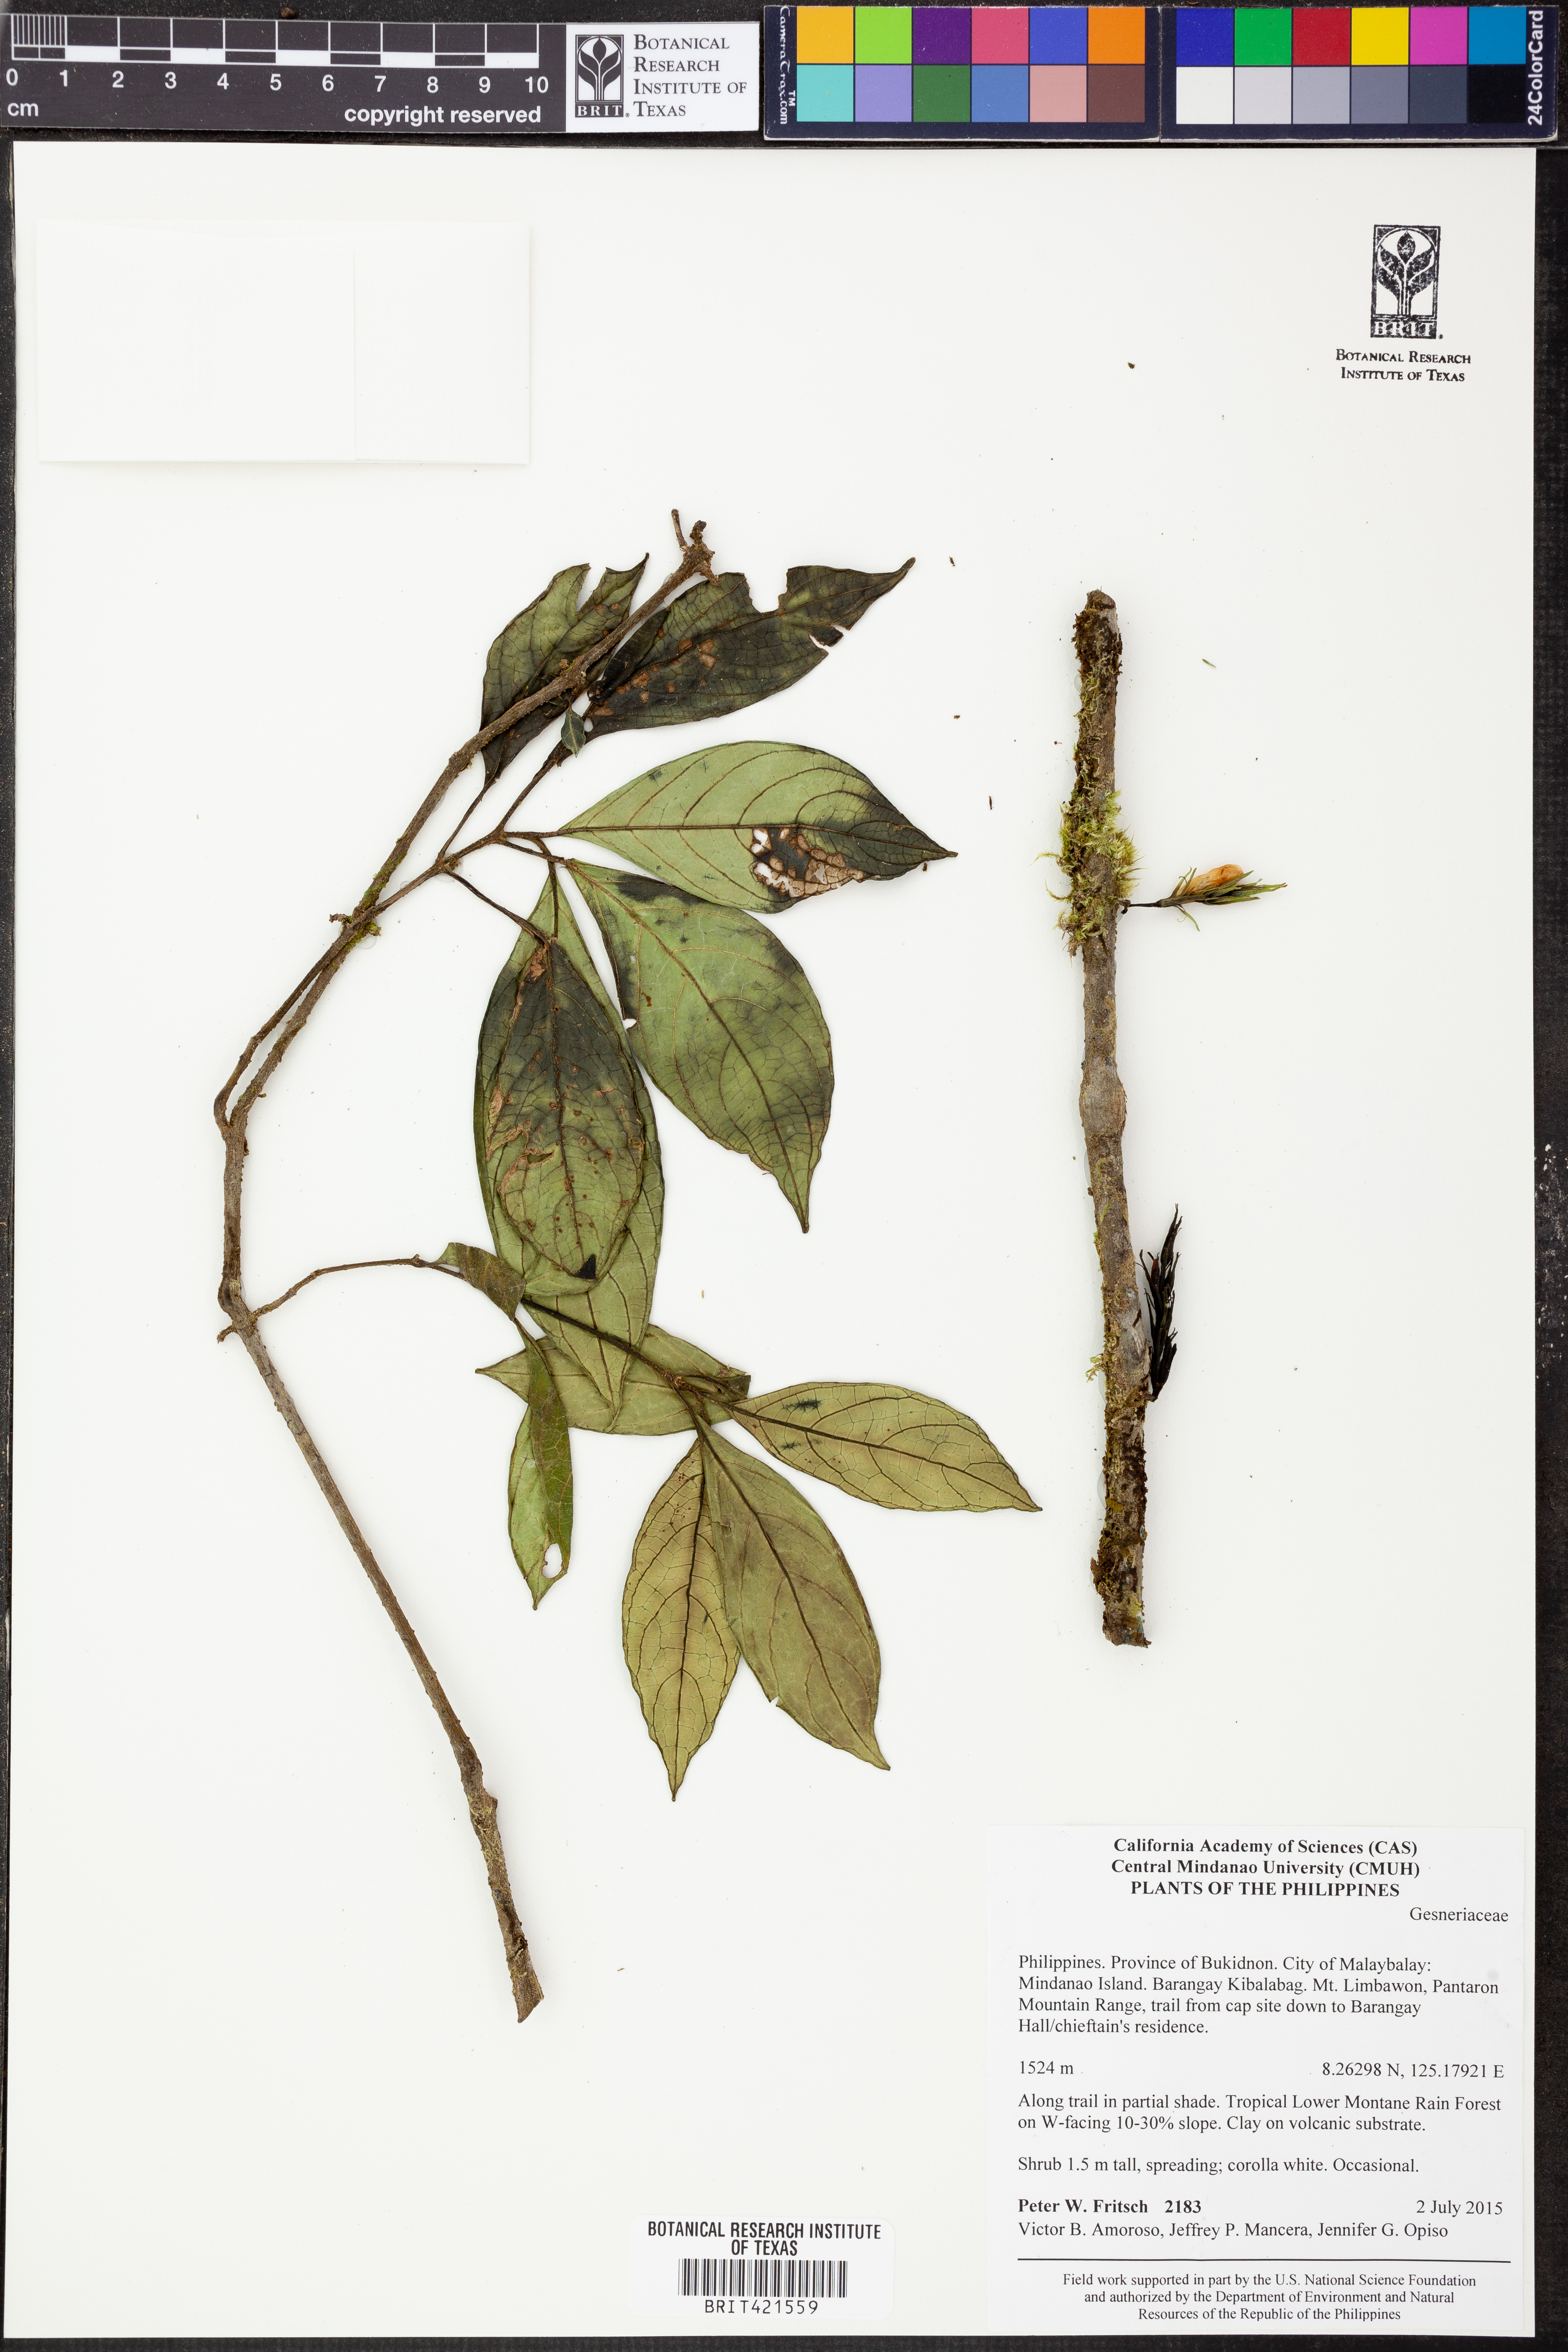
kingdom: Plantae
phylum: Tracheophyta
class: Magnoliopsida
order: Lamiales
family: Gesneriaceae
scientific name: Gesneriaceae
